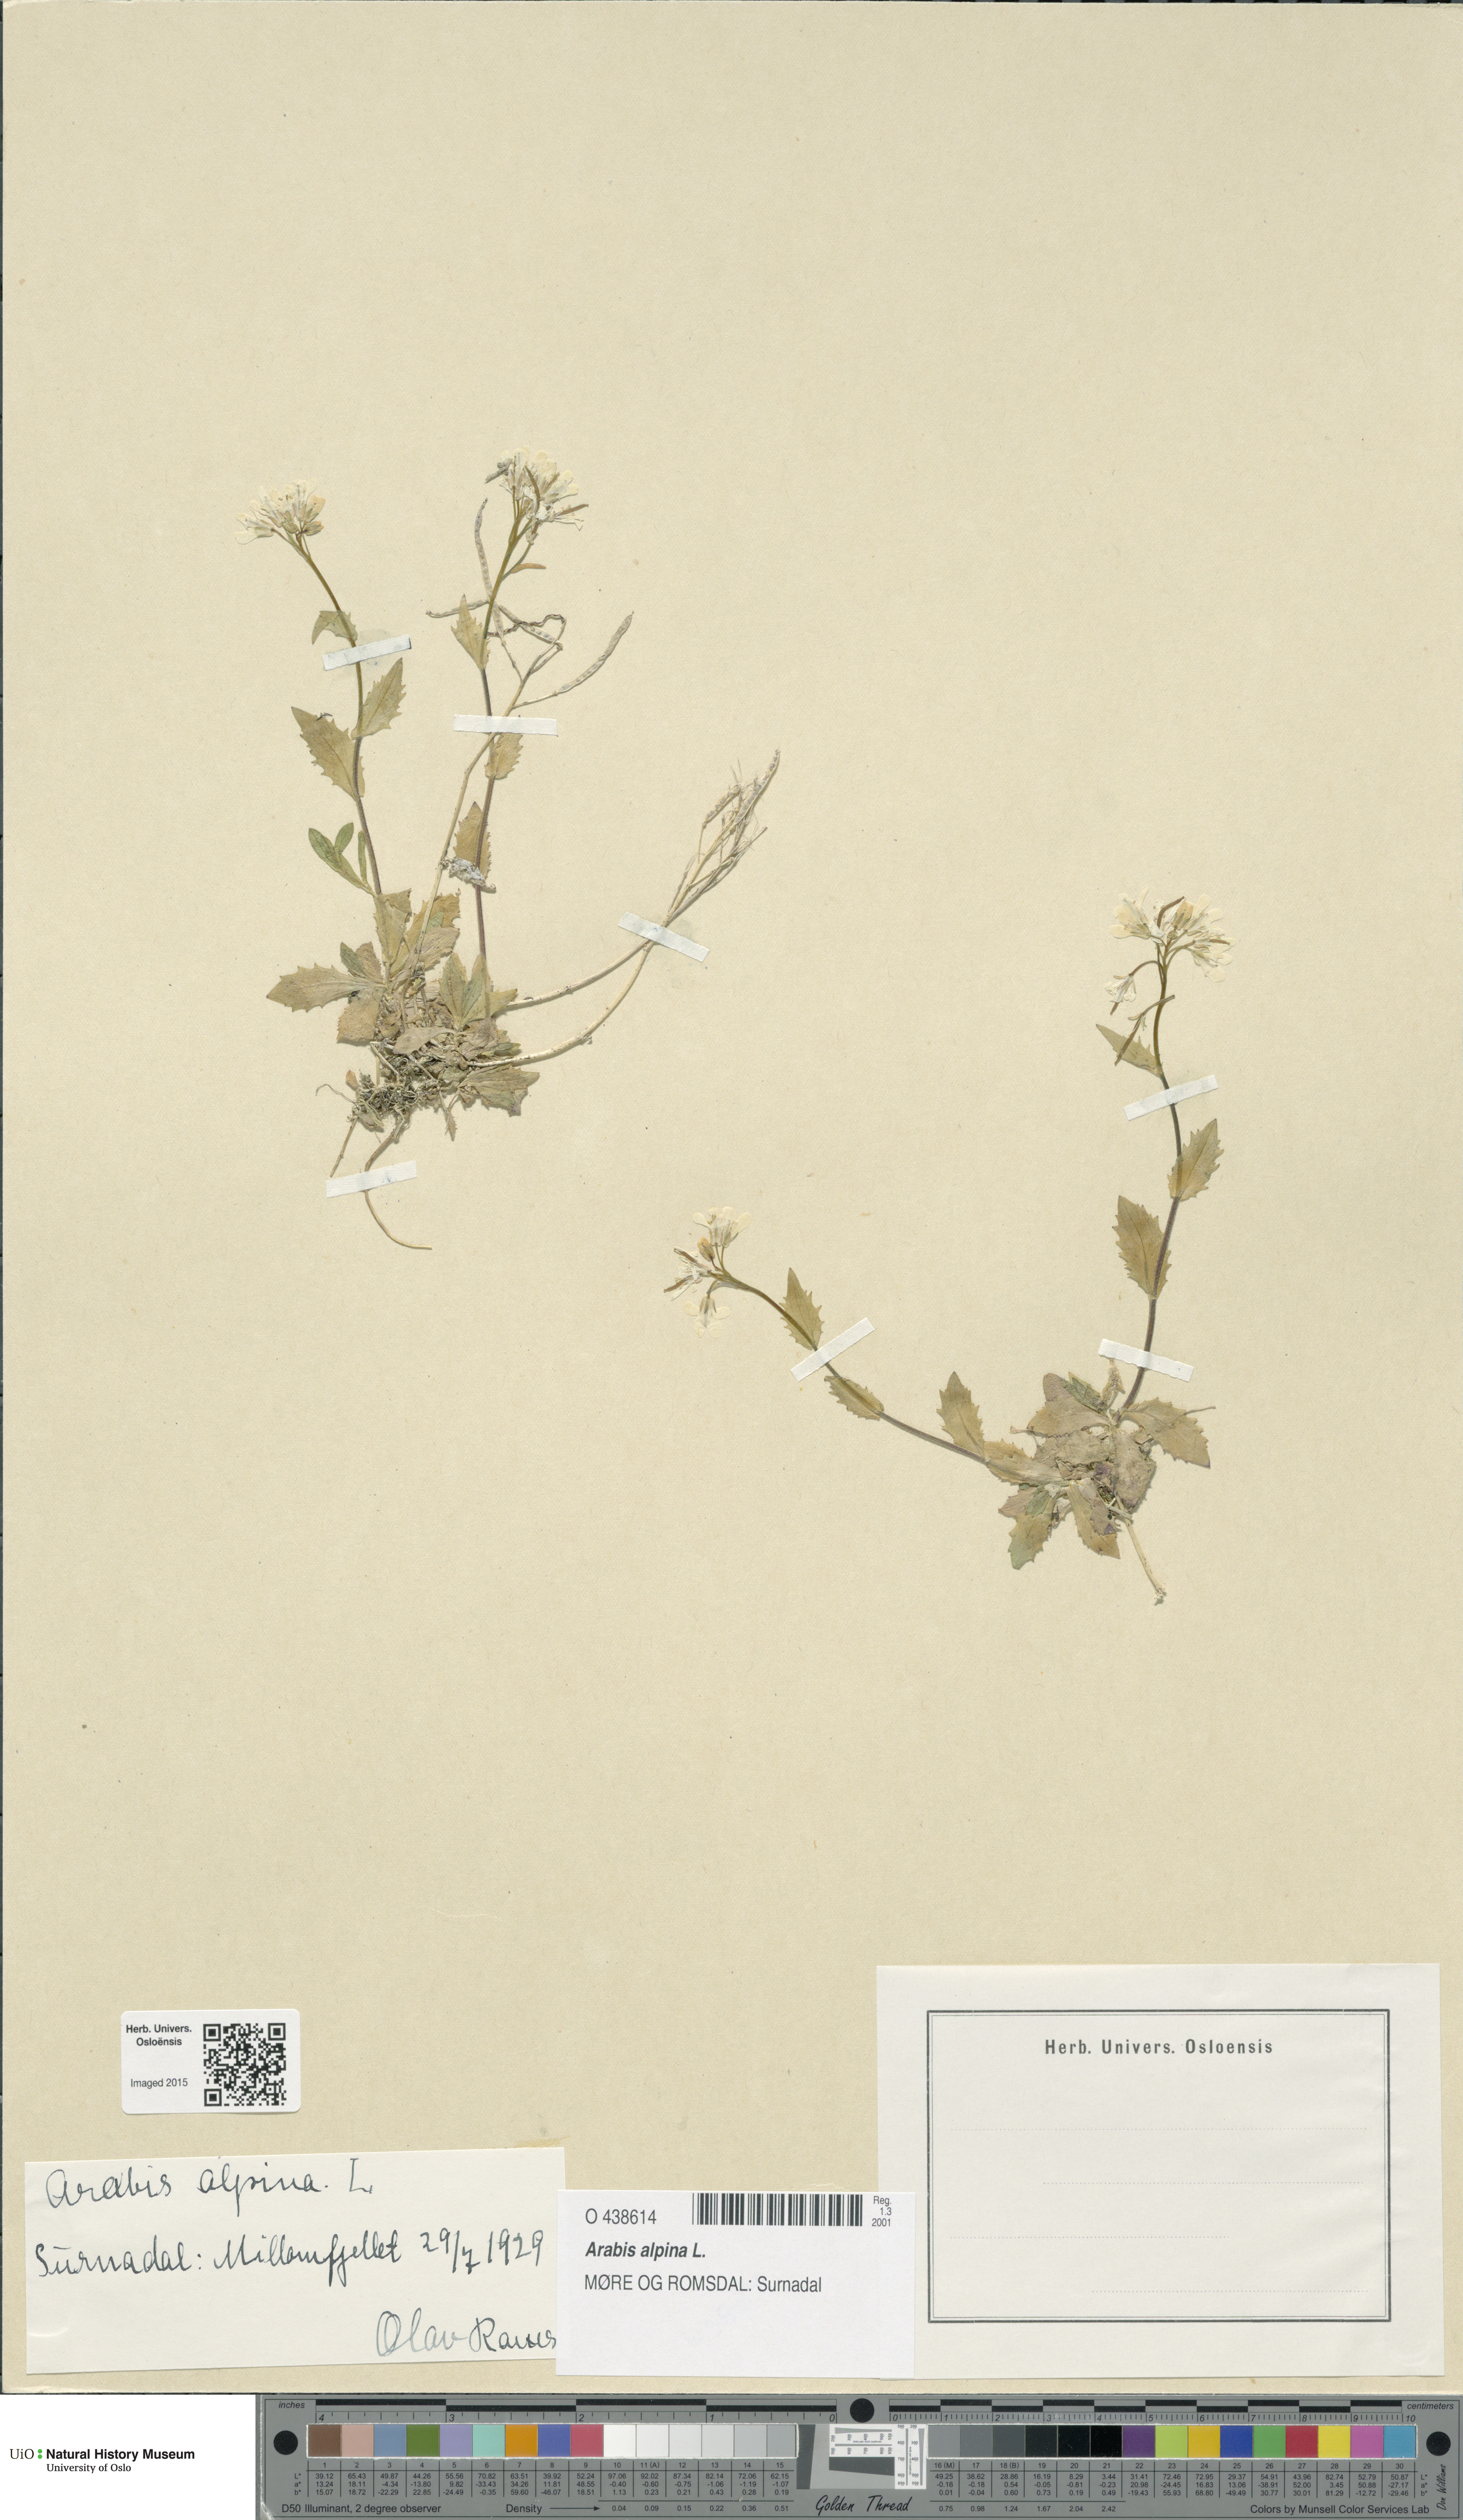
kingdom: Plantae
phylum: Tracheophyta
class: Magnoliopsida
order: Brassicales
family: Brassicaceae
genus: Arabis
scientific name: Arabis alpina
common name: Alpine rock-cress
